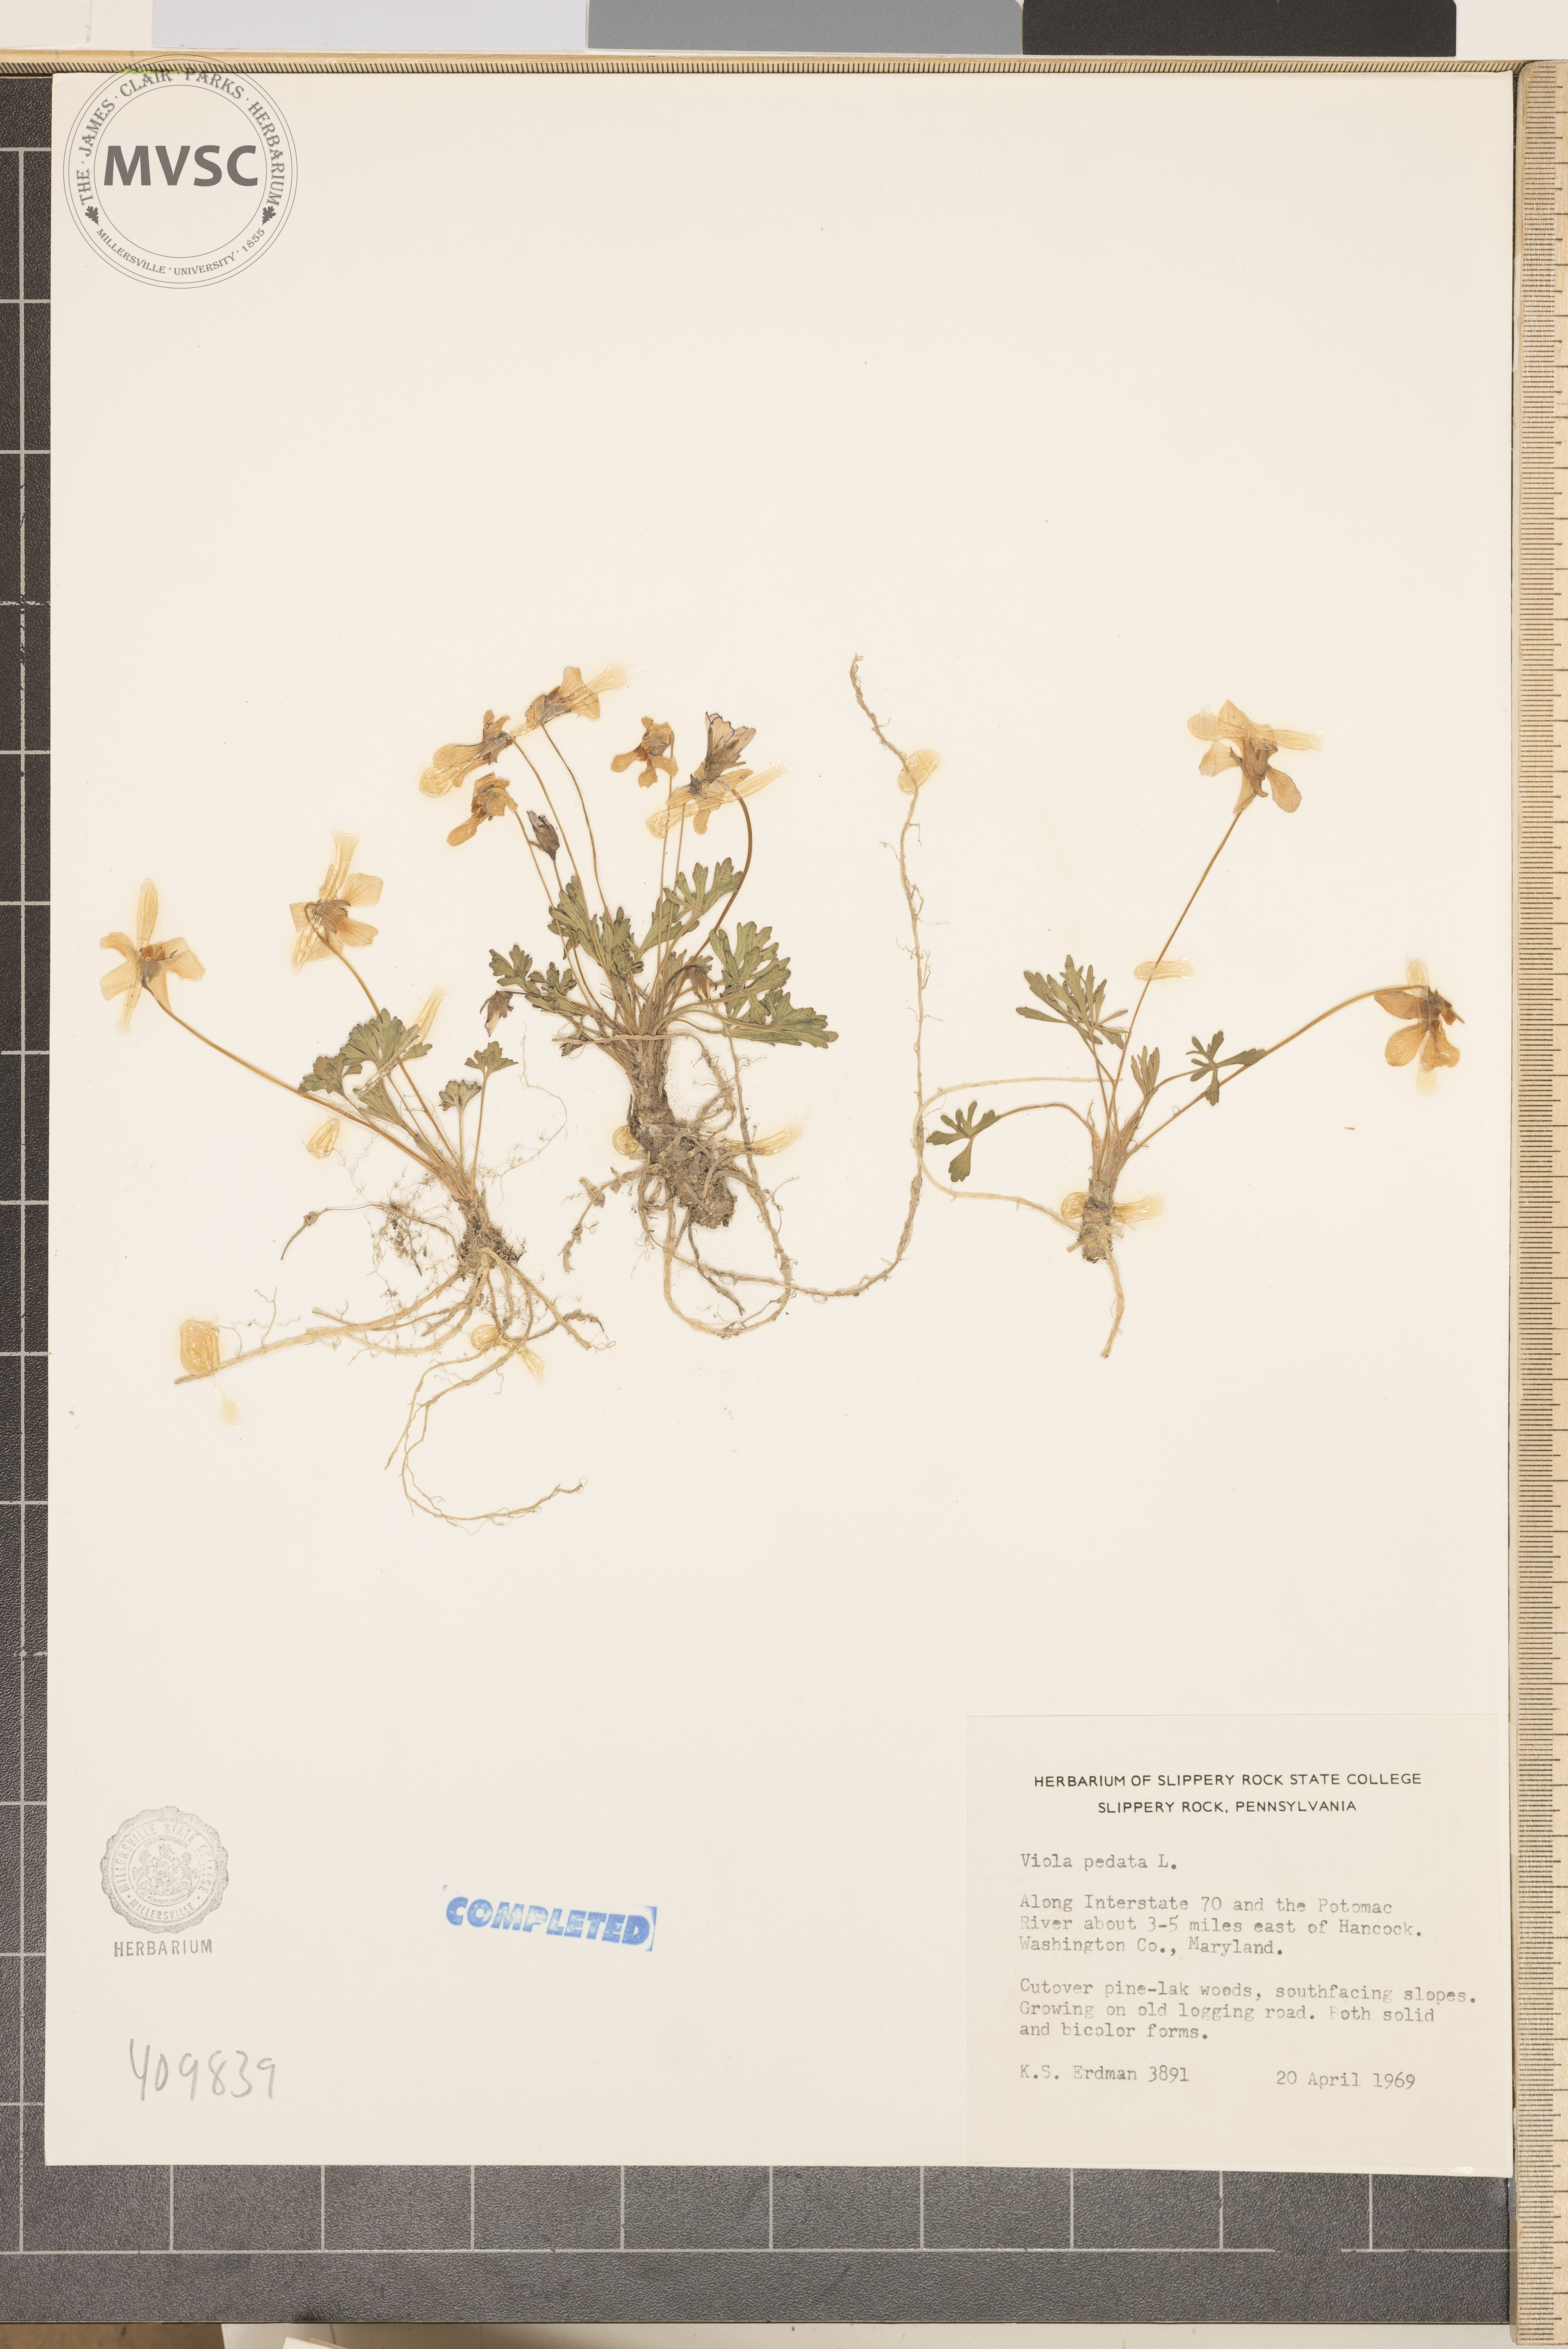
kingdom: Plantae
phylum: Tracheophyta
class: Magnoliopsida
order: Malpighiales
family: Violaceae
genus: Viola
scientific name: Viola pedata
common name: Pansy violet
